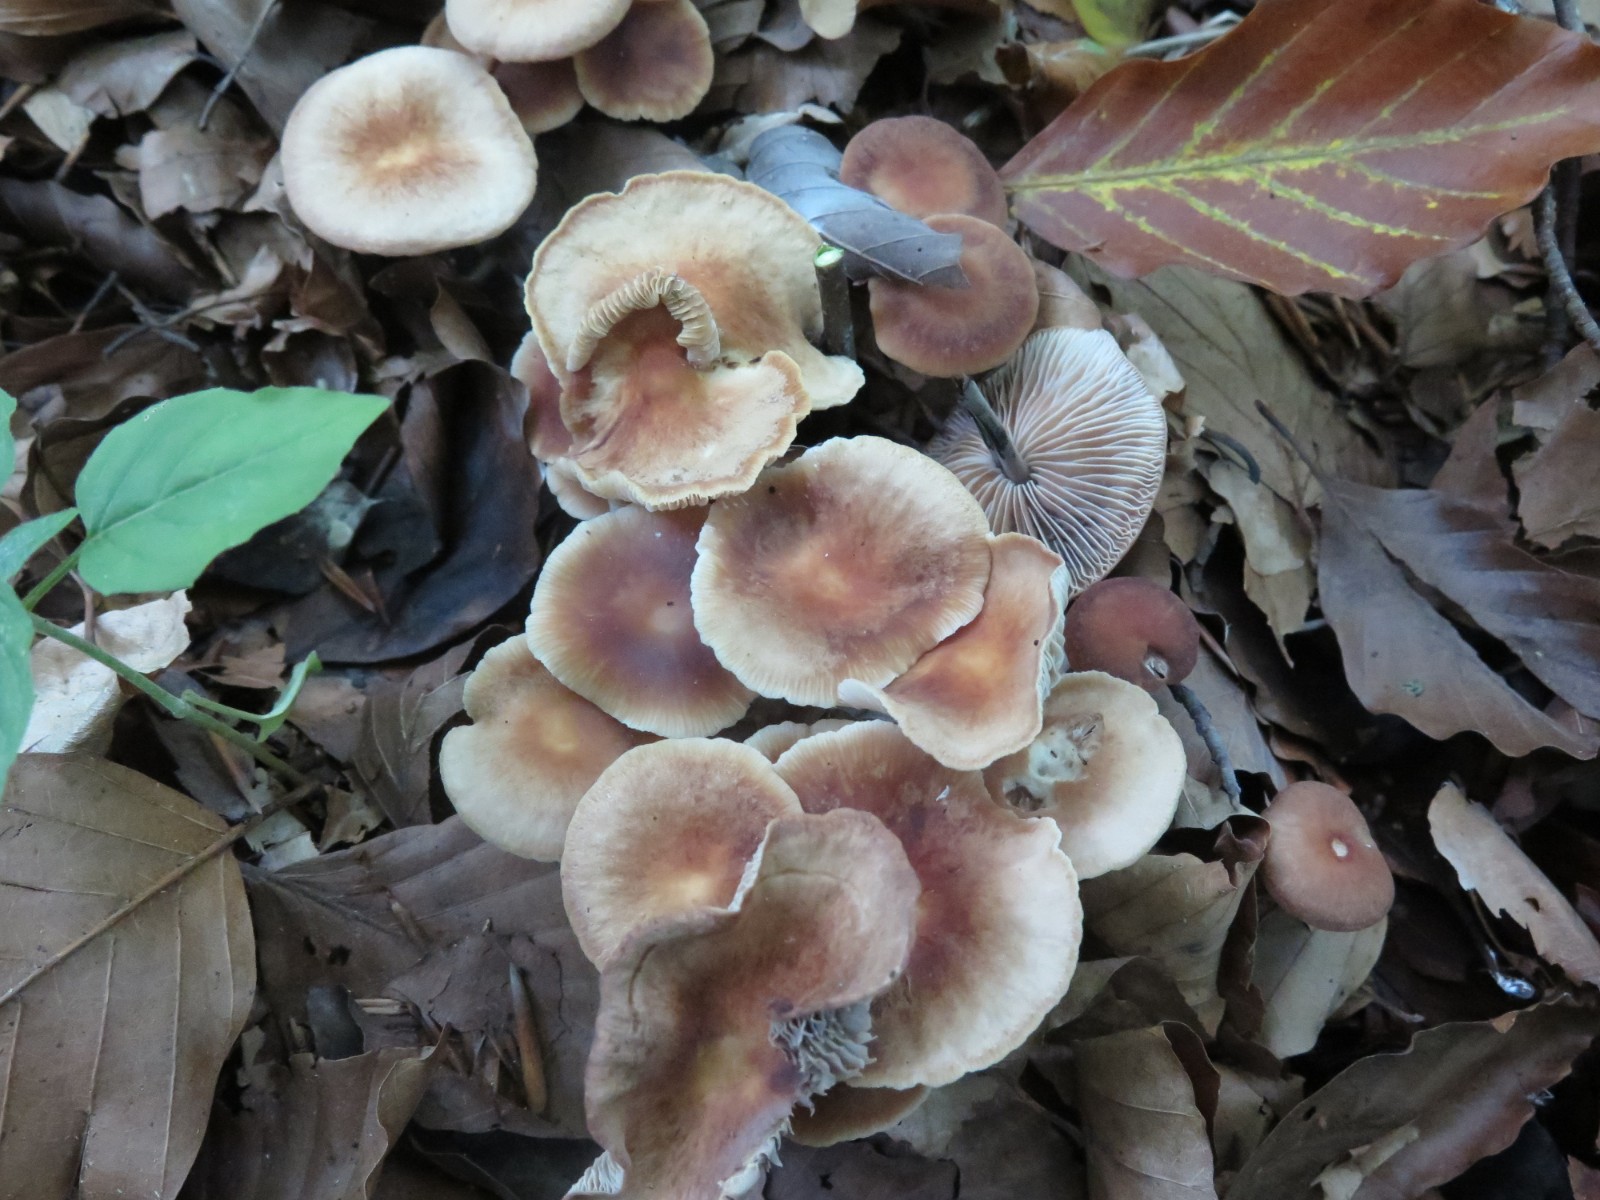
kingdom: Fungi
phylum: Basidiomycota
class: Agaricomycetes
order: Agaricales
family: Omphalotaceae
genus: Gymnopus
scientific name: Gymnopus brassicolens
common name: kål-fladhat
